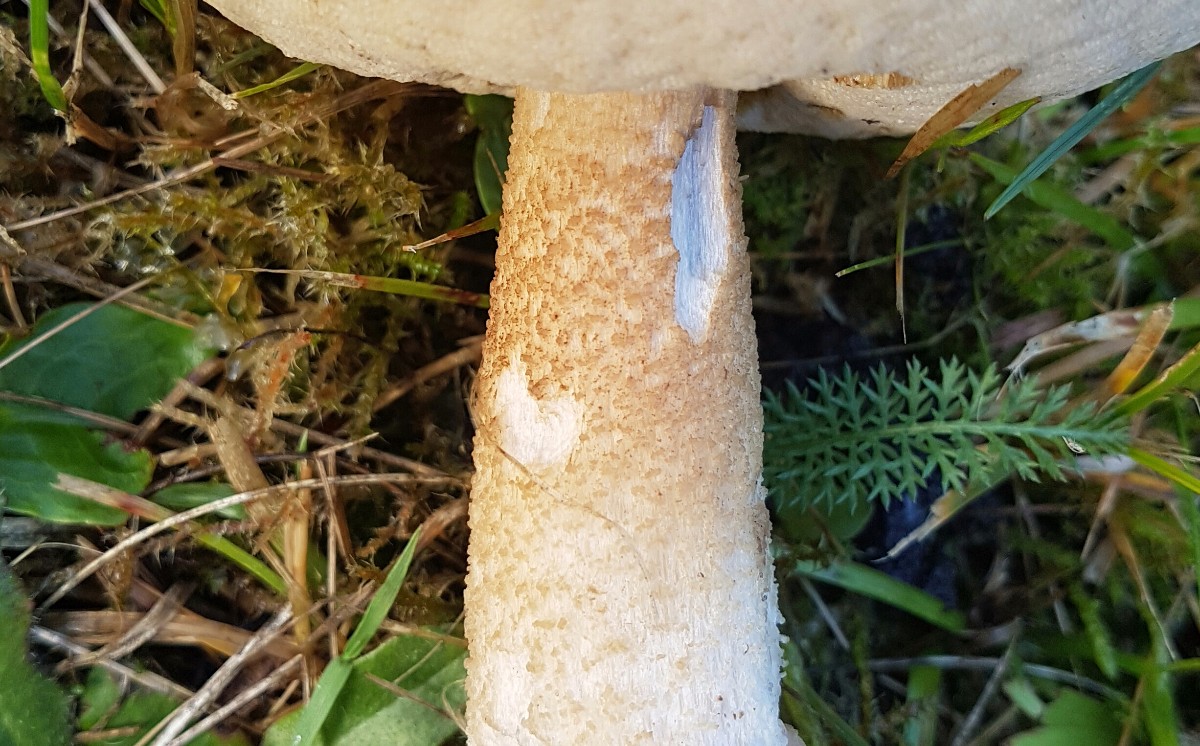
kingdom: Fungi
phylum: Basidiomycota
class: Agaricomycetes
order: Boletales
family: Boletaceae
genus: Leccinum
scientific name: Leccinum
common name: skælrørhat
